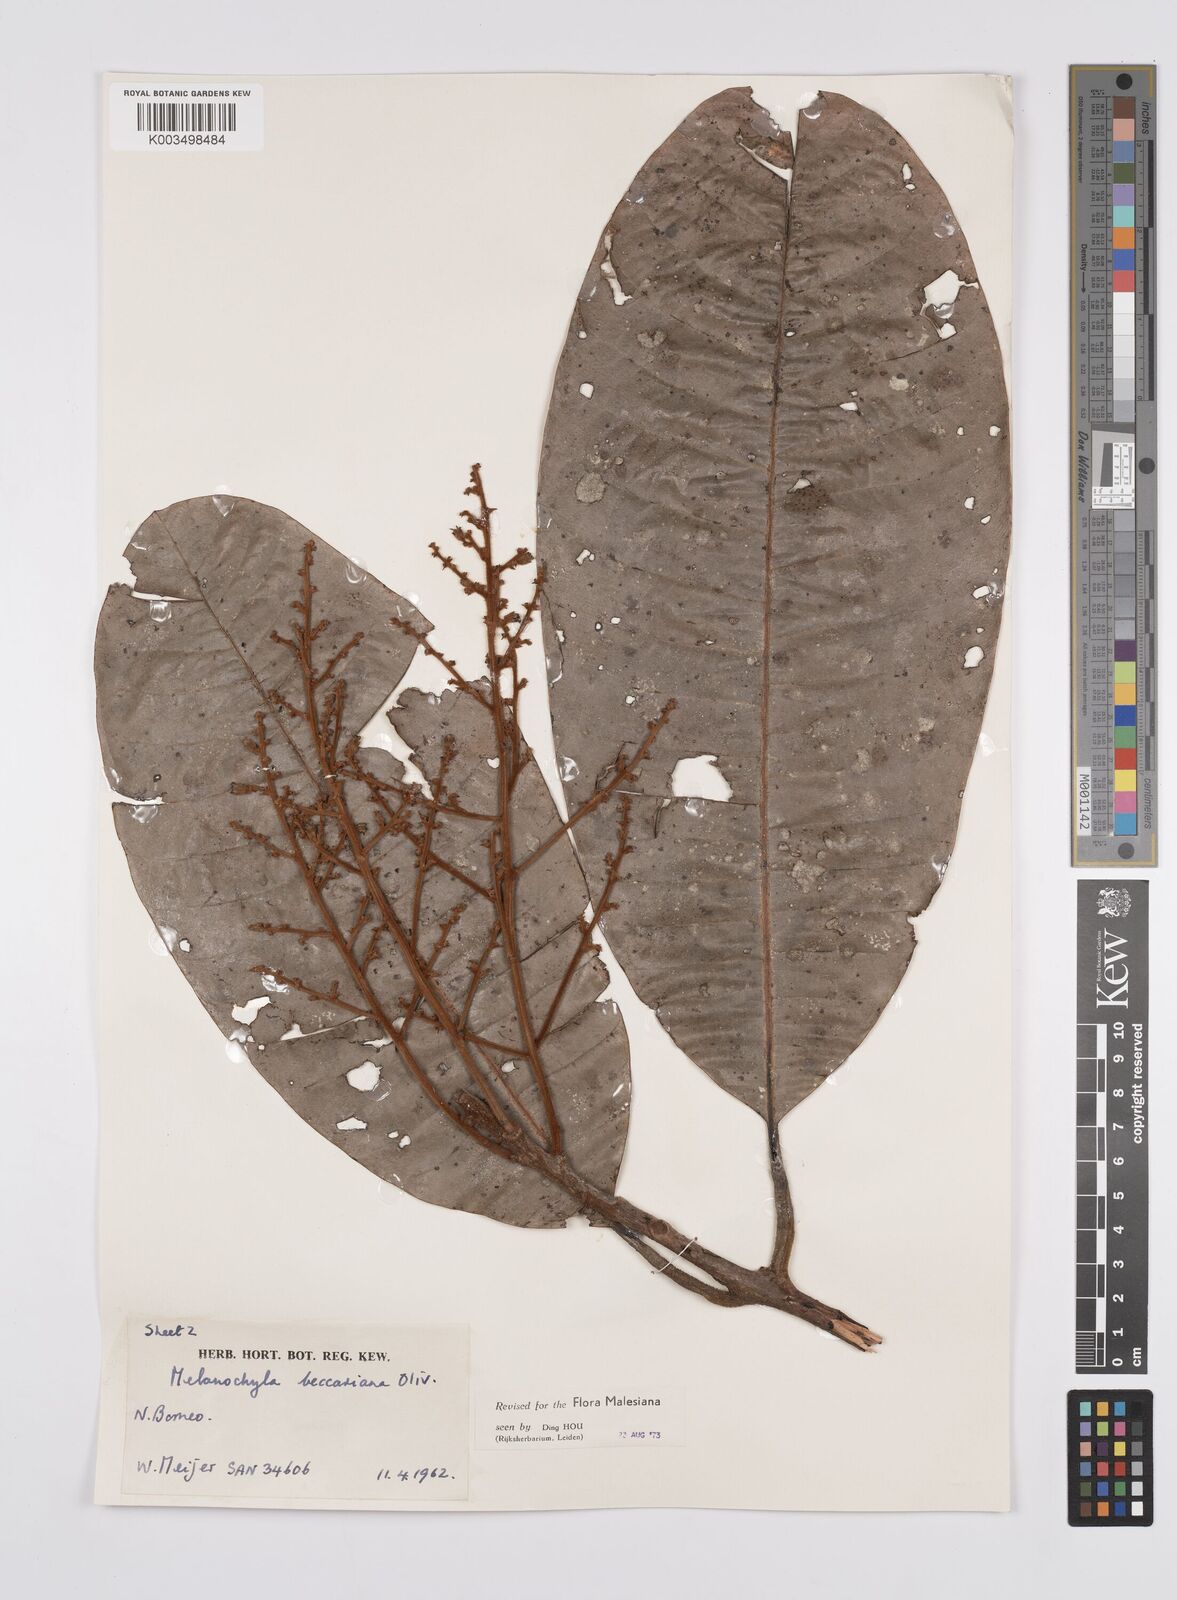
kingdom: Plantae
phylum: Tracheophyta
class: Magnoliopsida
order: Sapindales
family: Anacardiaceae
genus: Melanochyla
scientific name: Melanochyla beccariana
